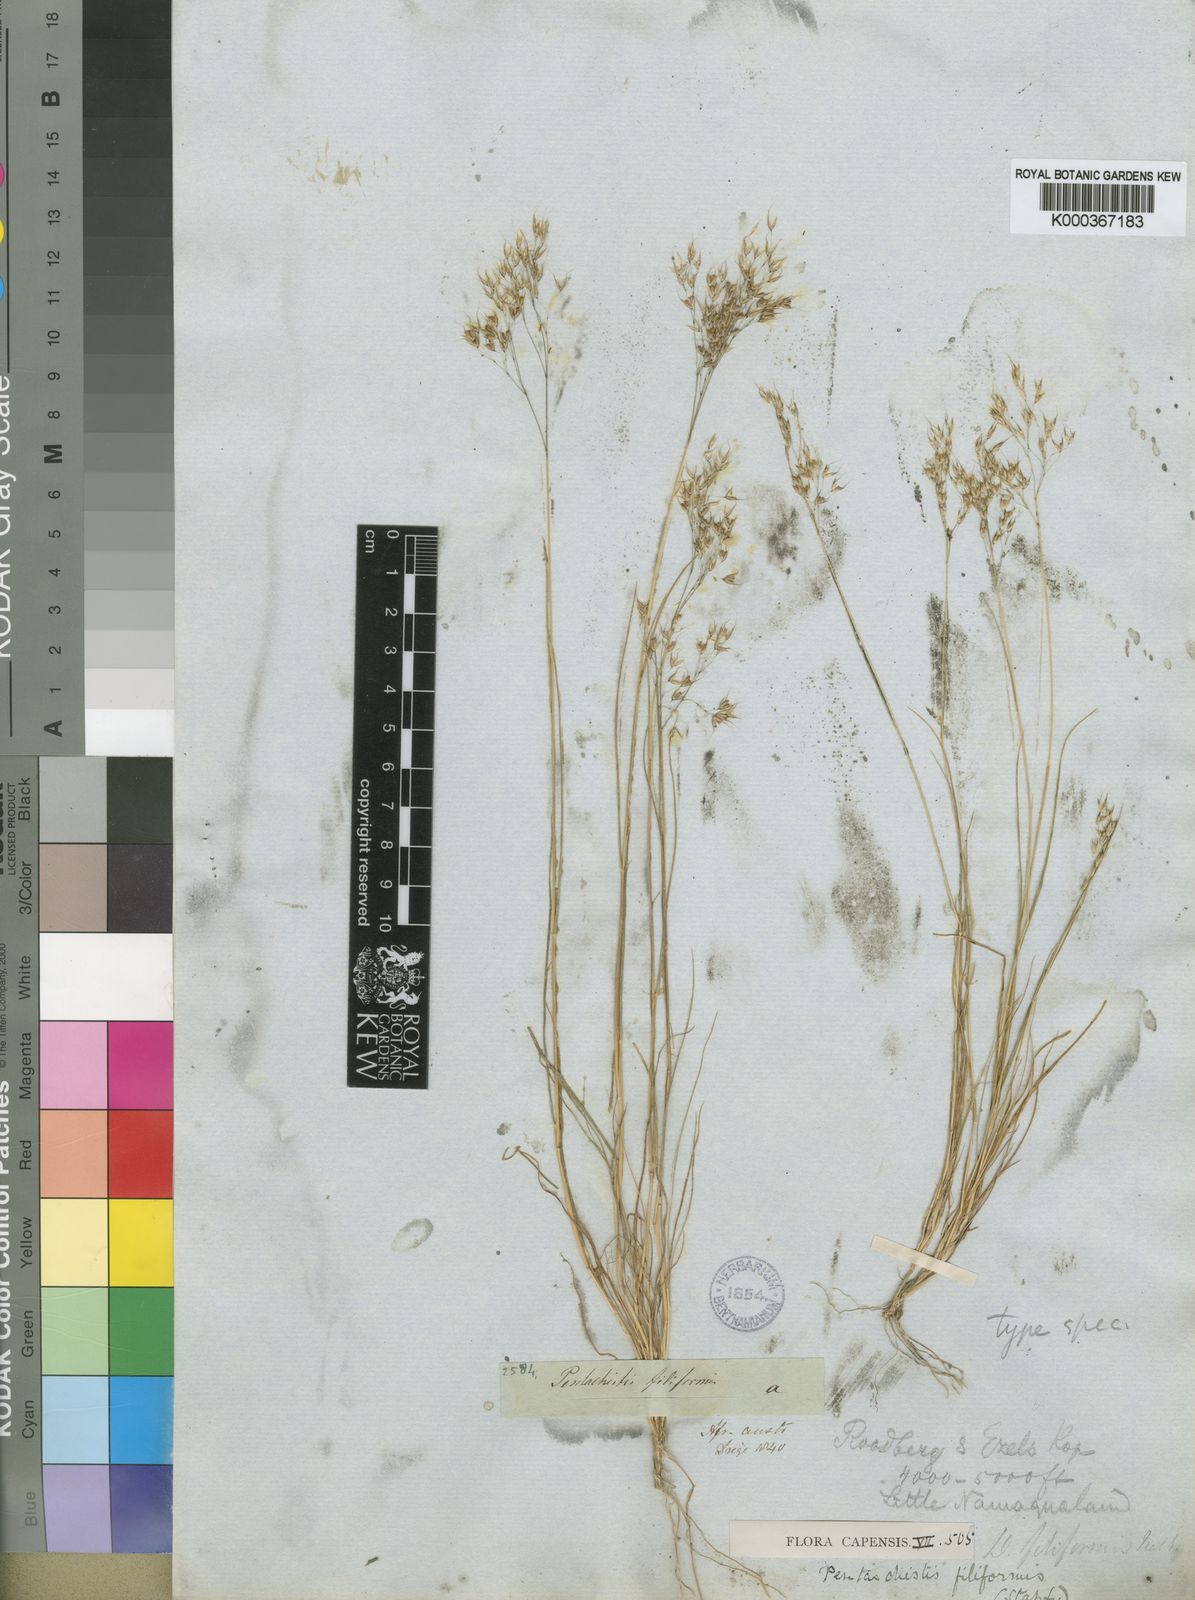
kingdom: Plantae
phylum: Tracheophyta
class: Liliopsida
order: Poales
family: Poaceae
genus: Pentameris
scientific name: Pentameris pallida
